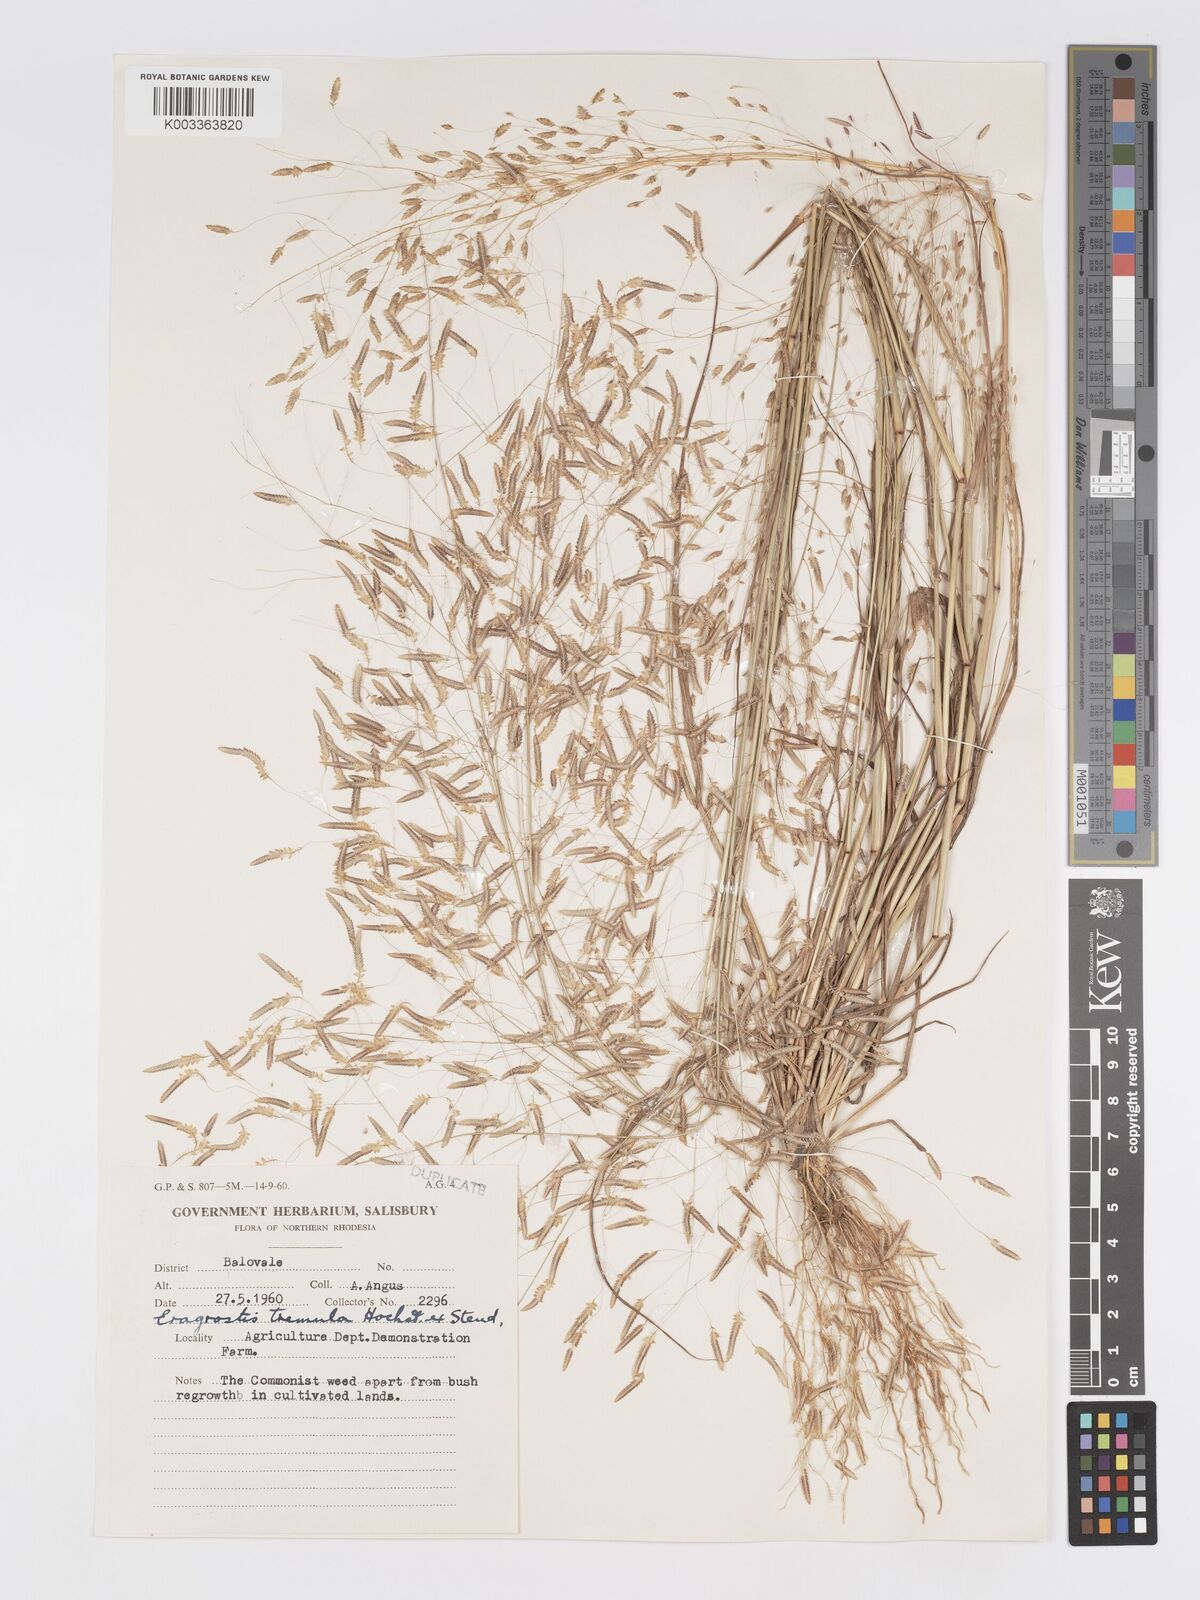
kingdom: Plantae
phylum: Tracheophyta
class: Liliopsida
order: Poales
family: Poaceae
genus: Eragrostis
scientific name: Eragrostis tremula
